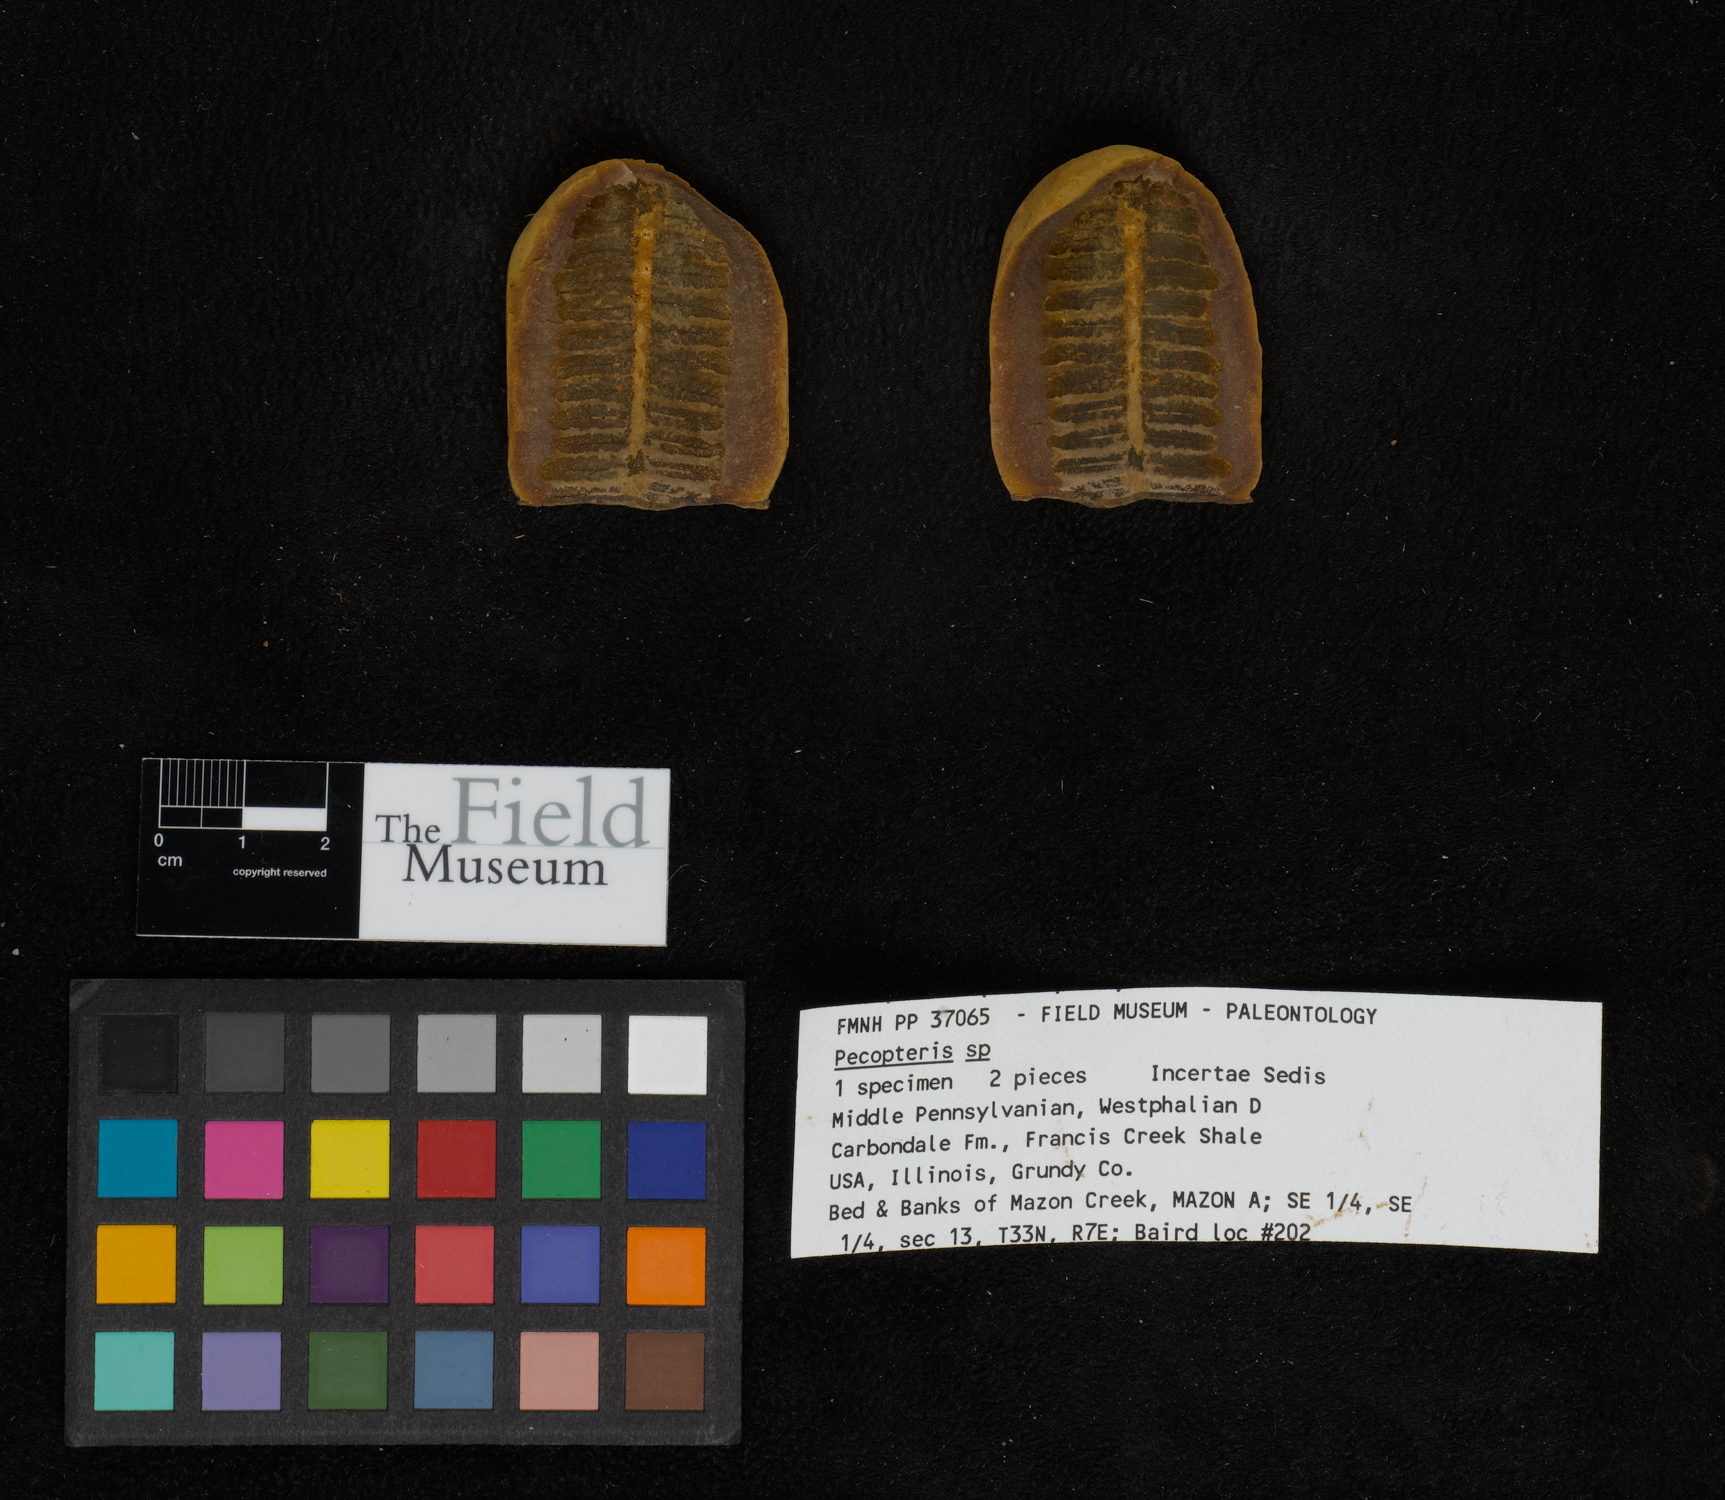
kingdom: Plantae
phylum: Tracheophyta
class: Polypodiopsida
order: Marattiales
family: Asterothecaceae
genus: Pecopteris
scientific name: Pecopteris
